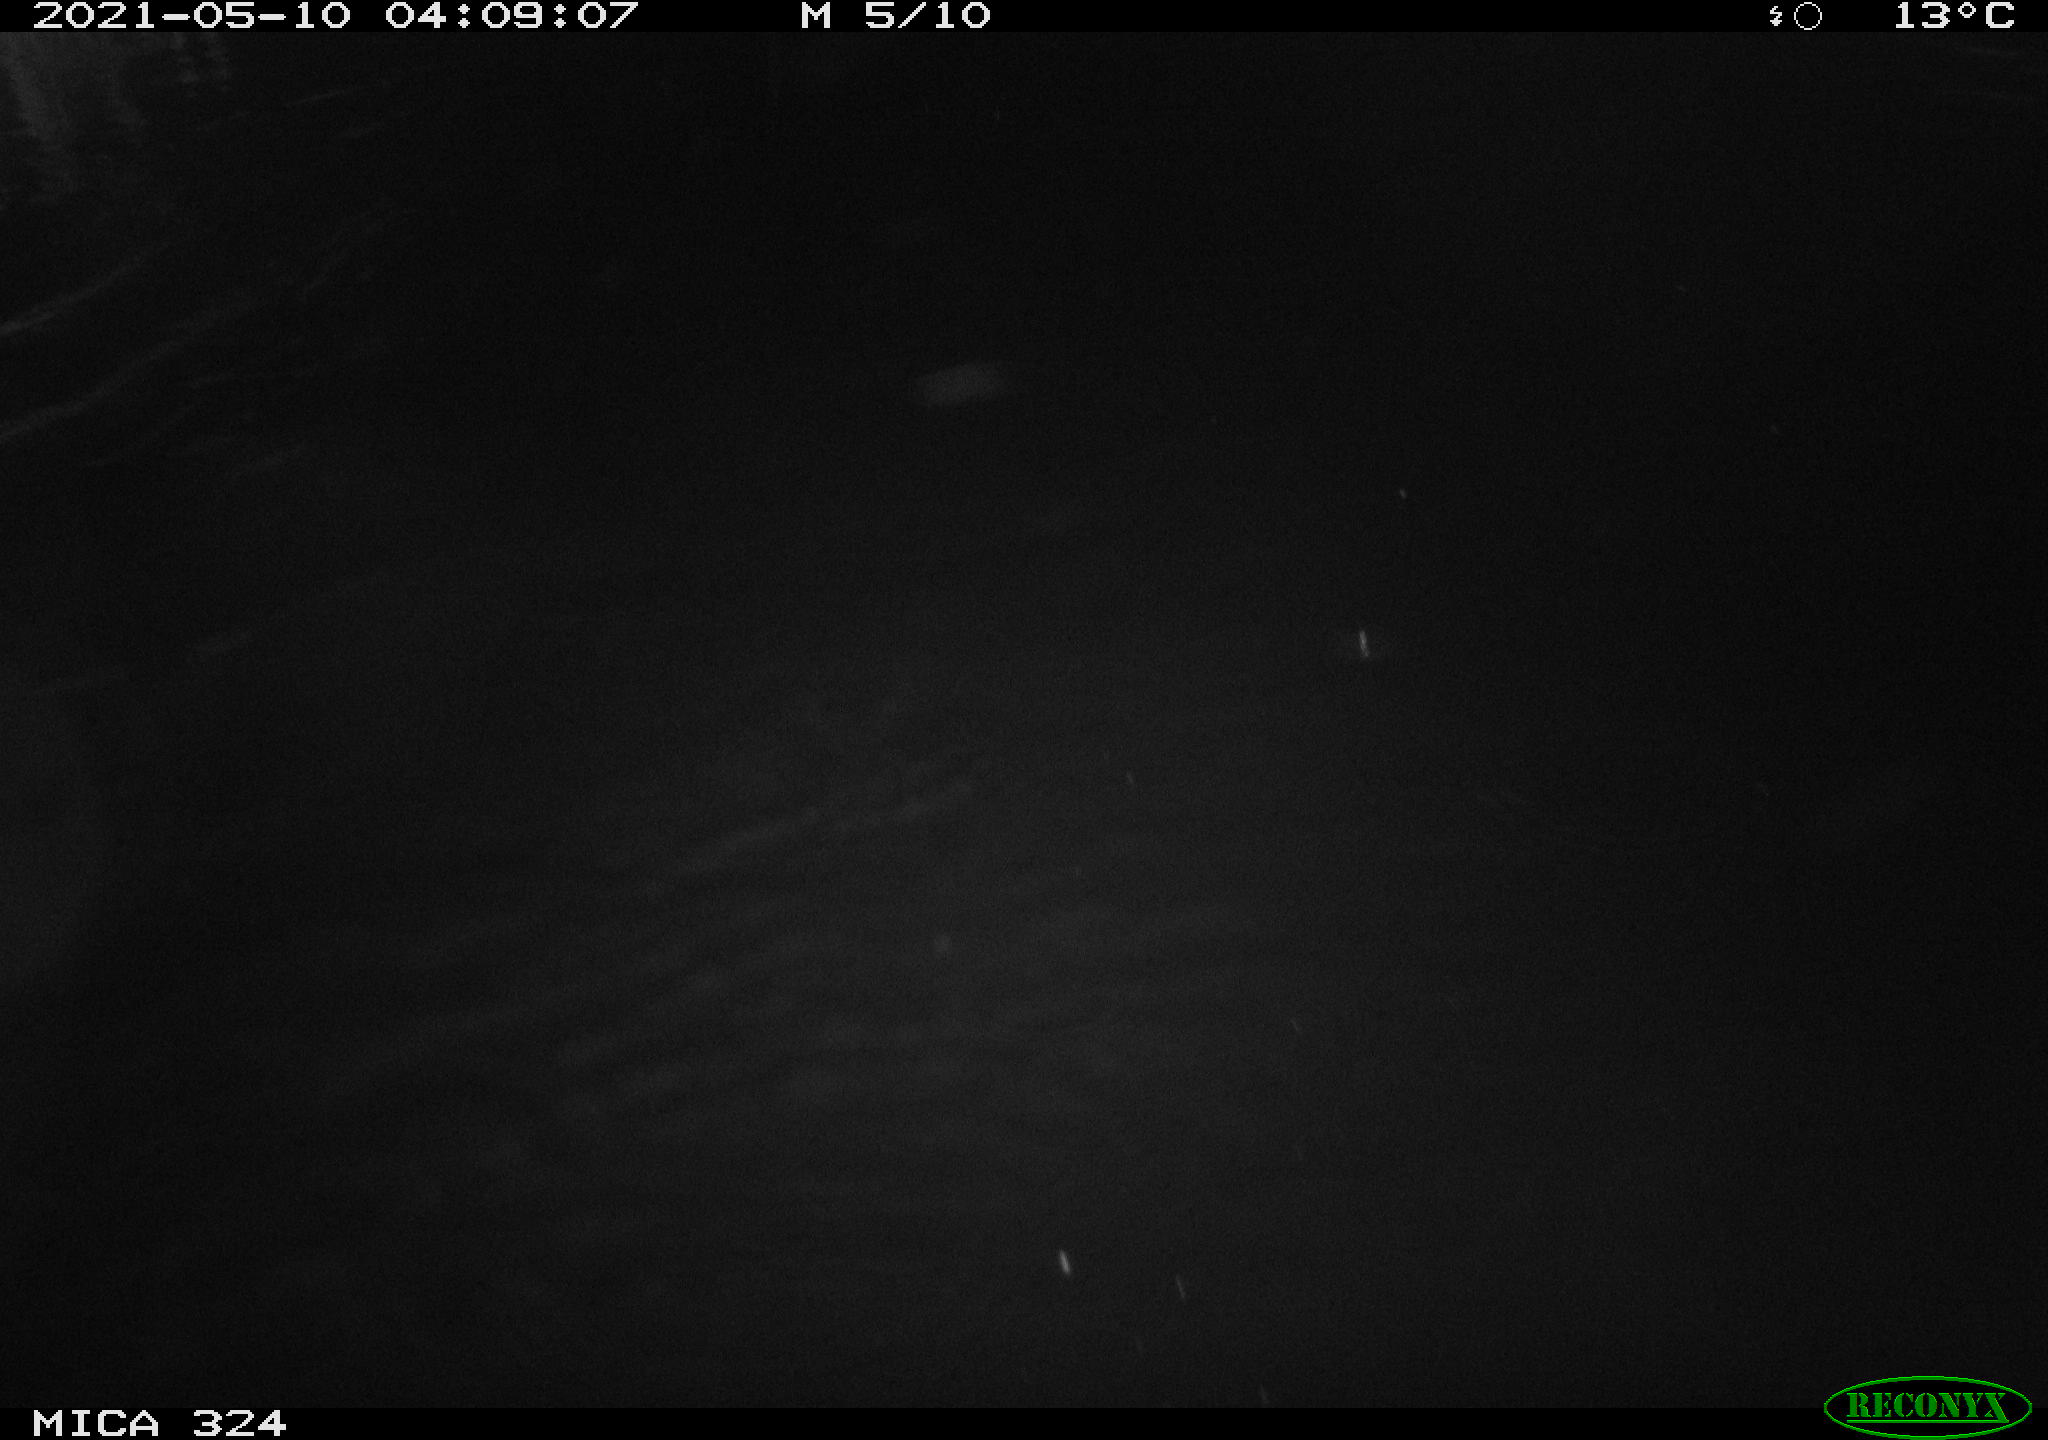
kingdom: Animalia
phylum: Chordata
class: Aves
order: Anseriformes
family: Anatidae
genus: Anas
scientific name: Anas platyrhynchos
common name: Mallard
